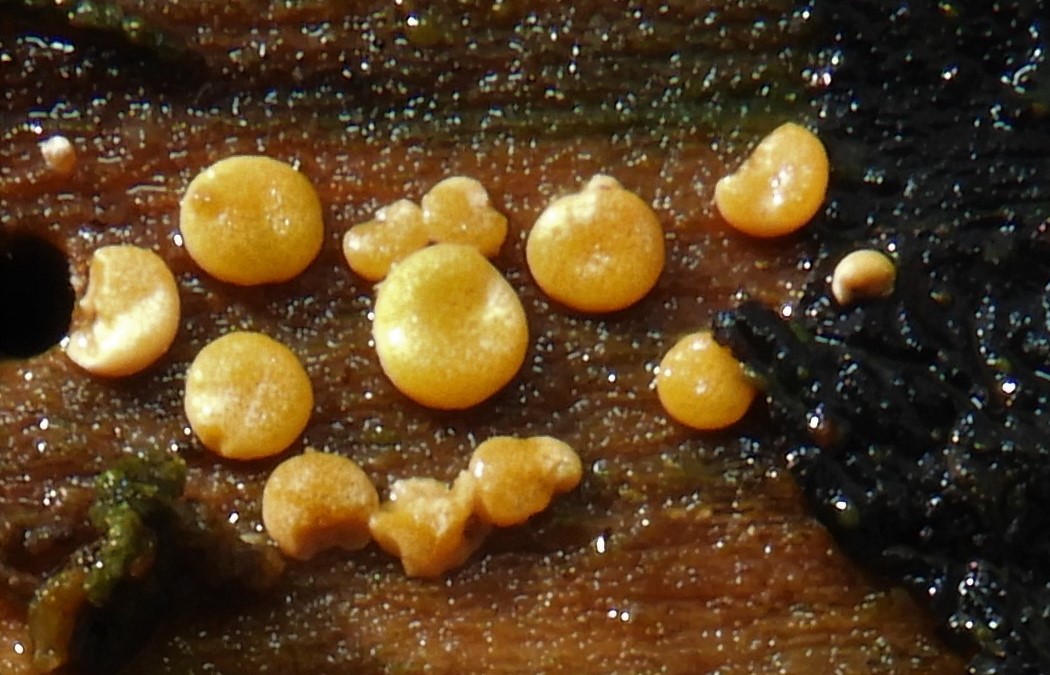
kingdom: Fungi
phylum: Ascomycota
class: Sordariomycetes
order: Hypocreales
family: Hypocreaceae
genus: Trichoderma
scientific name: Trichoderma
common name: kødkerne
